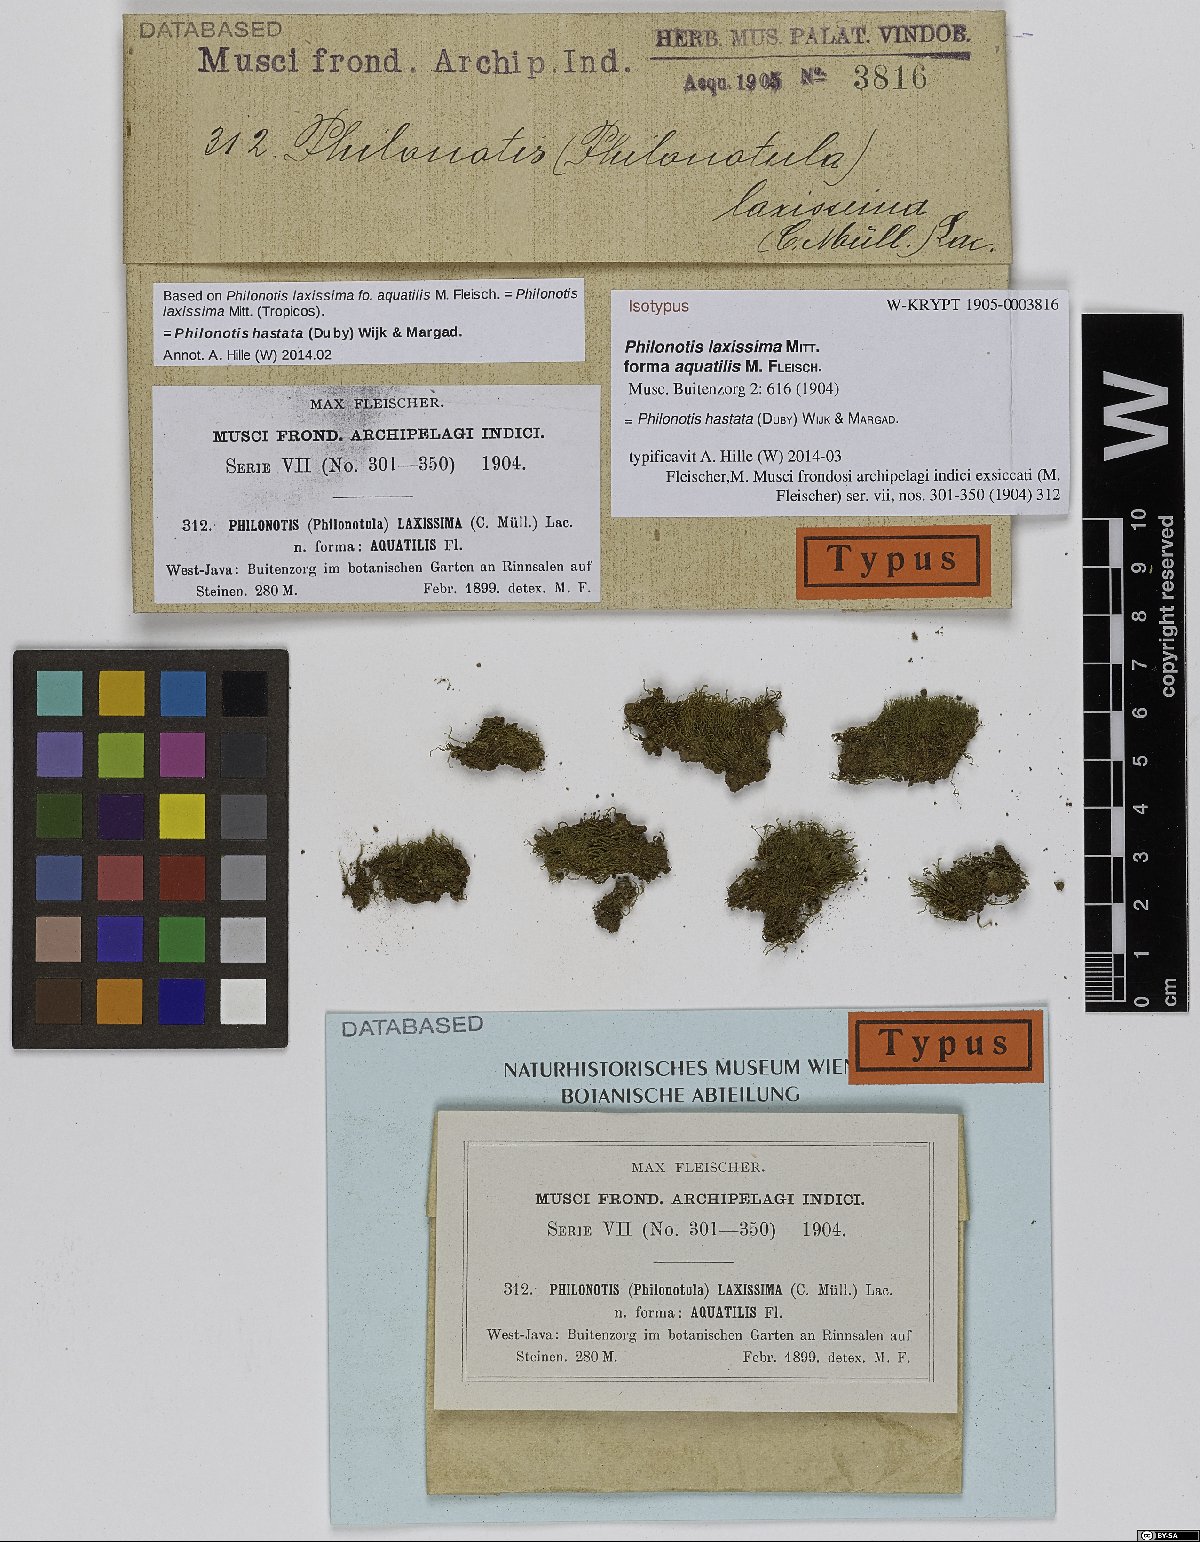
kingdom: Plantae
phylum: Bryophyta
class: Bryopsida
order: Bartramiales
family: Bartramiaceae
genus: Philonotis
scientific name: Philonotis hastata
